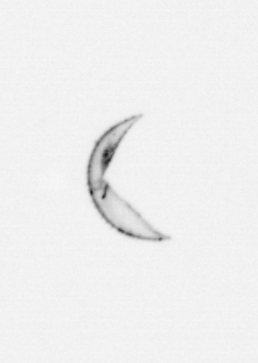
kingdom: Chromista
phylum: Ochrophyta
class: Bacillariophyceae
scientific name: Bacillariophyceae
